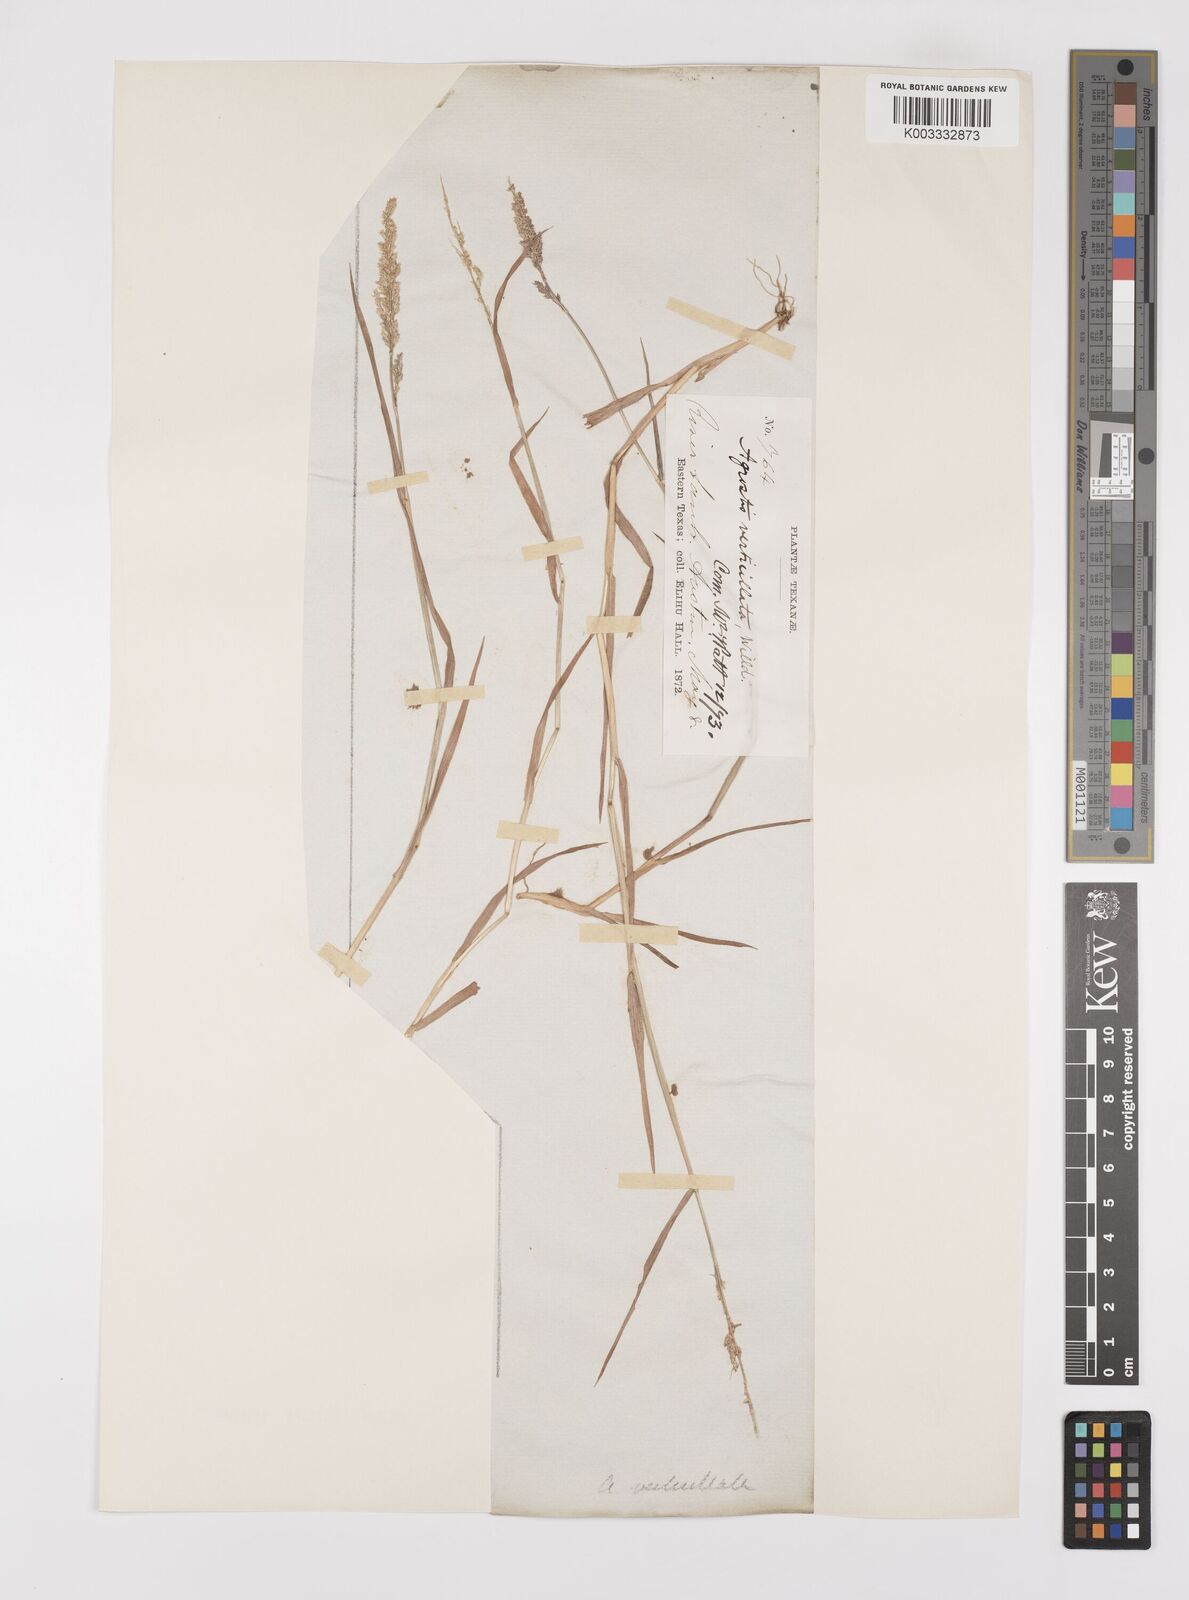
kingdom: Plantae
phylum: Tracheophyta
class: Liliopsida
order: Poales
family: Poaceae
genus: Polypogon
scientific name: Polypogon viridis
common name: Water bent
